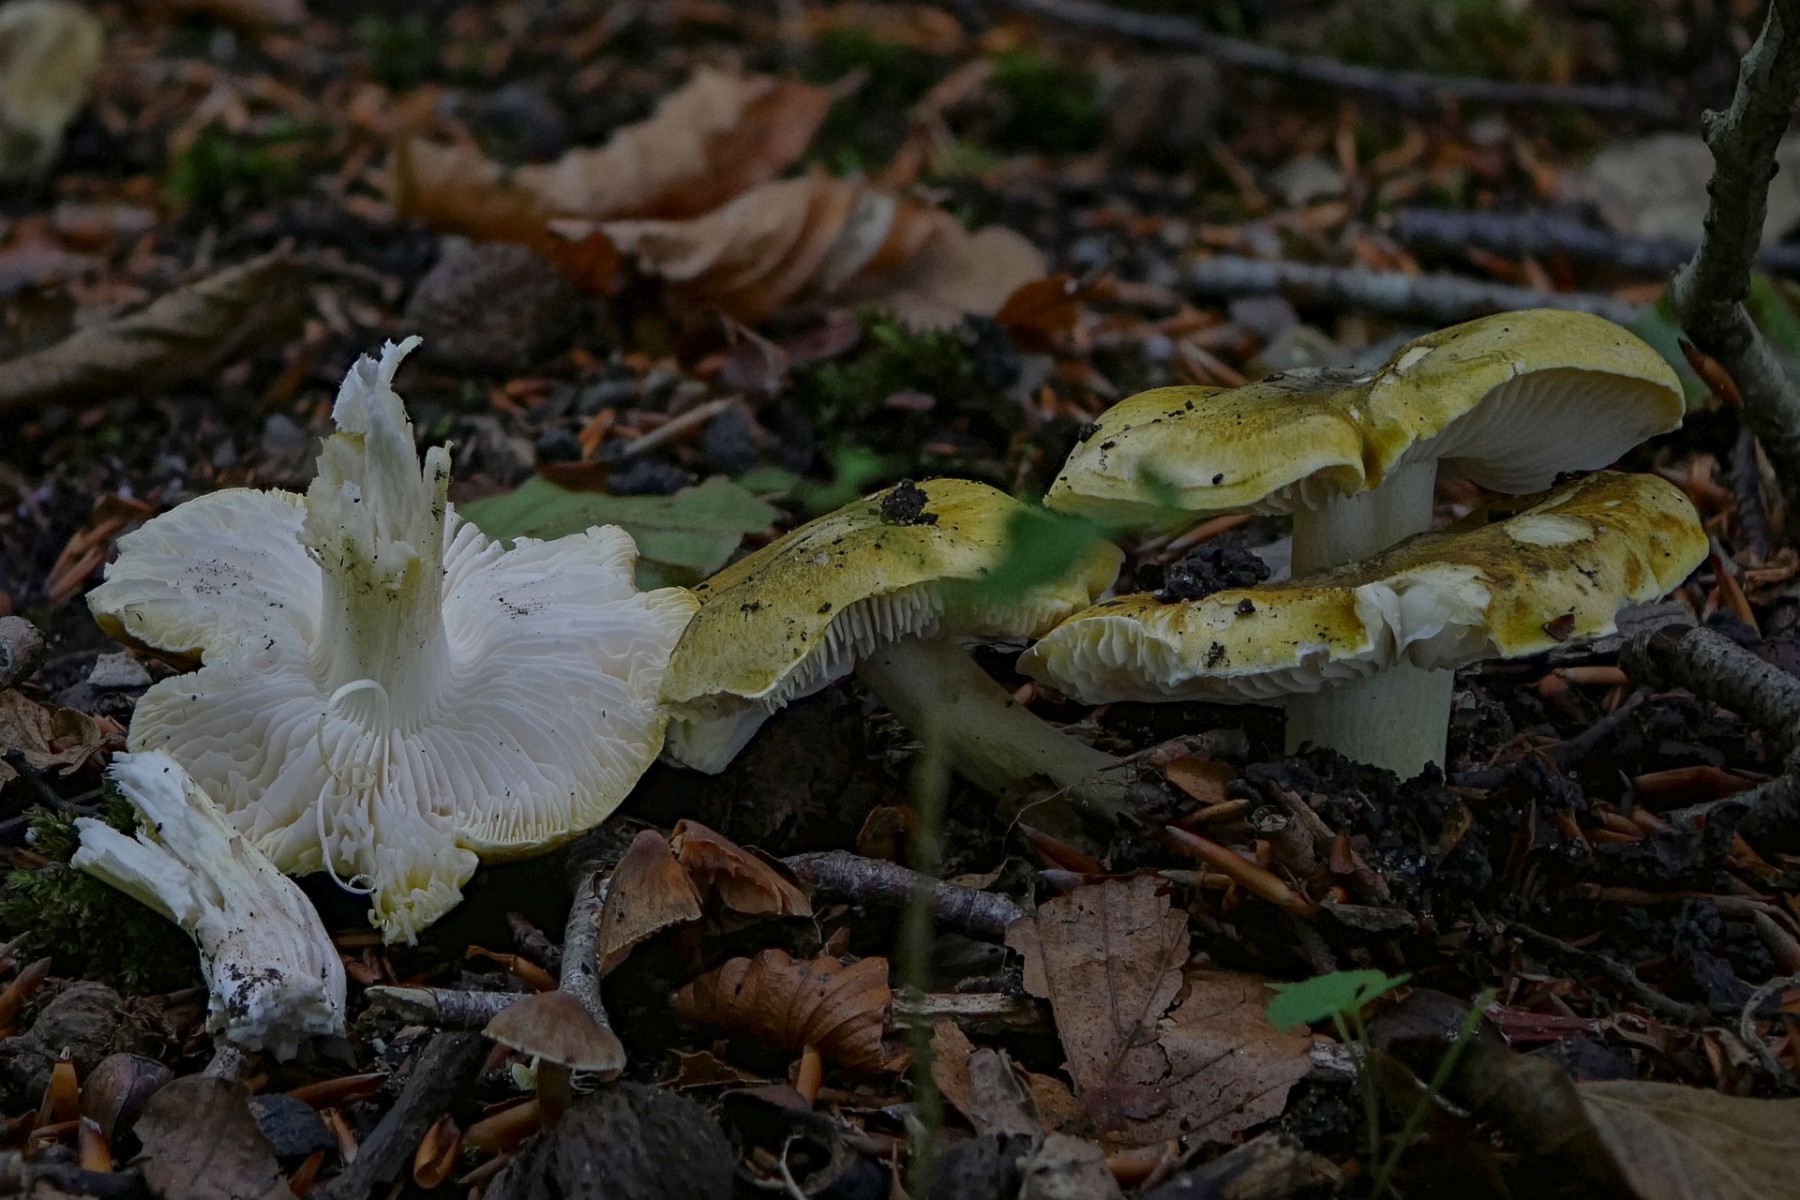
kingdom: Fungi
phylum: Basidiomycota
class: Agaricomycetes
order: Agaricales
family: Tricholomataceae
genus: Tricholoma
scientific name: Tricholoma sejunctum
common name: grøngul ridderhat
